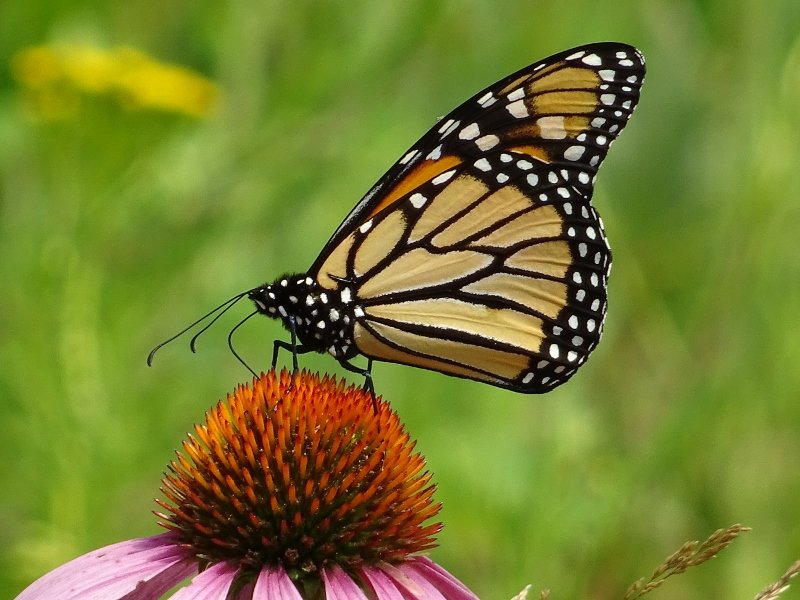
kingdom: Animalia
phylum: Arthropoda
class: Insecta
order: Lepidoptera
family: Nymphalidae
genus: Danaus
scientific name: Danaus plexippus
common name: Monarch
